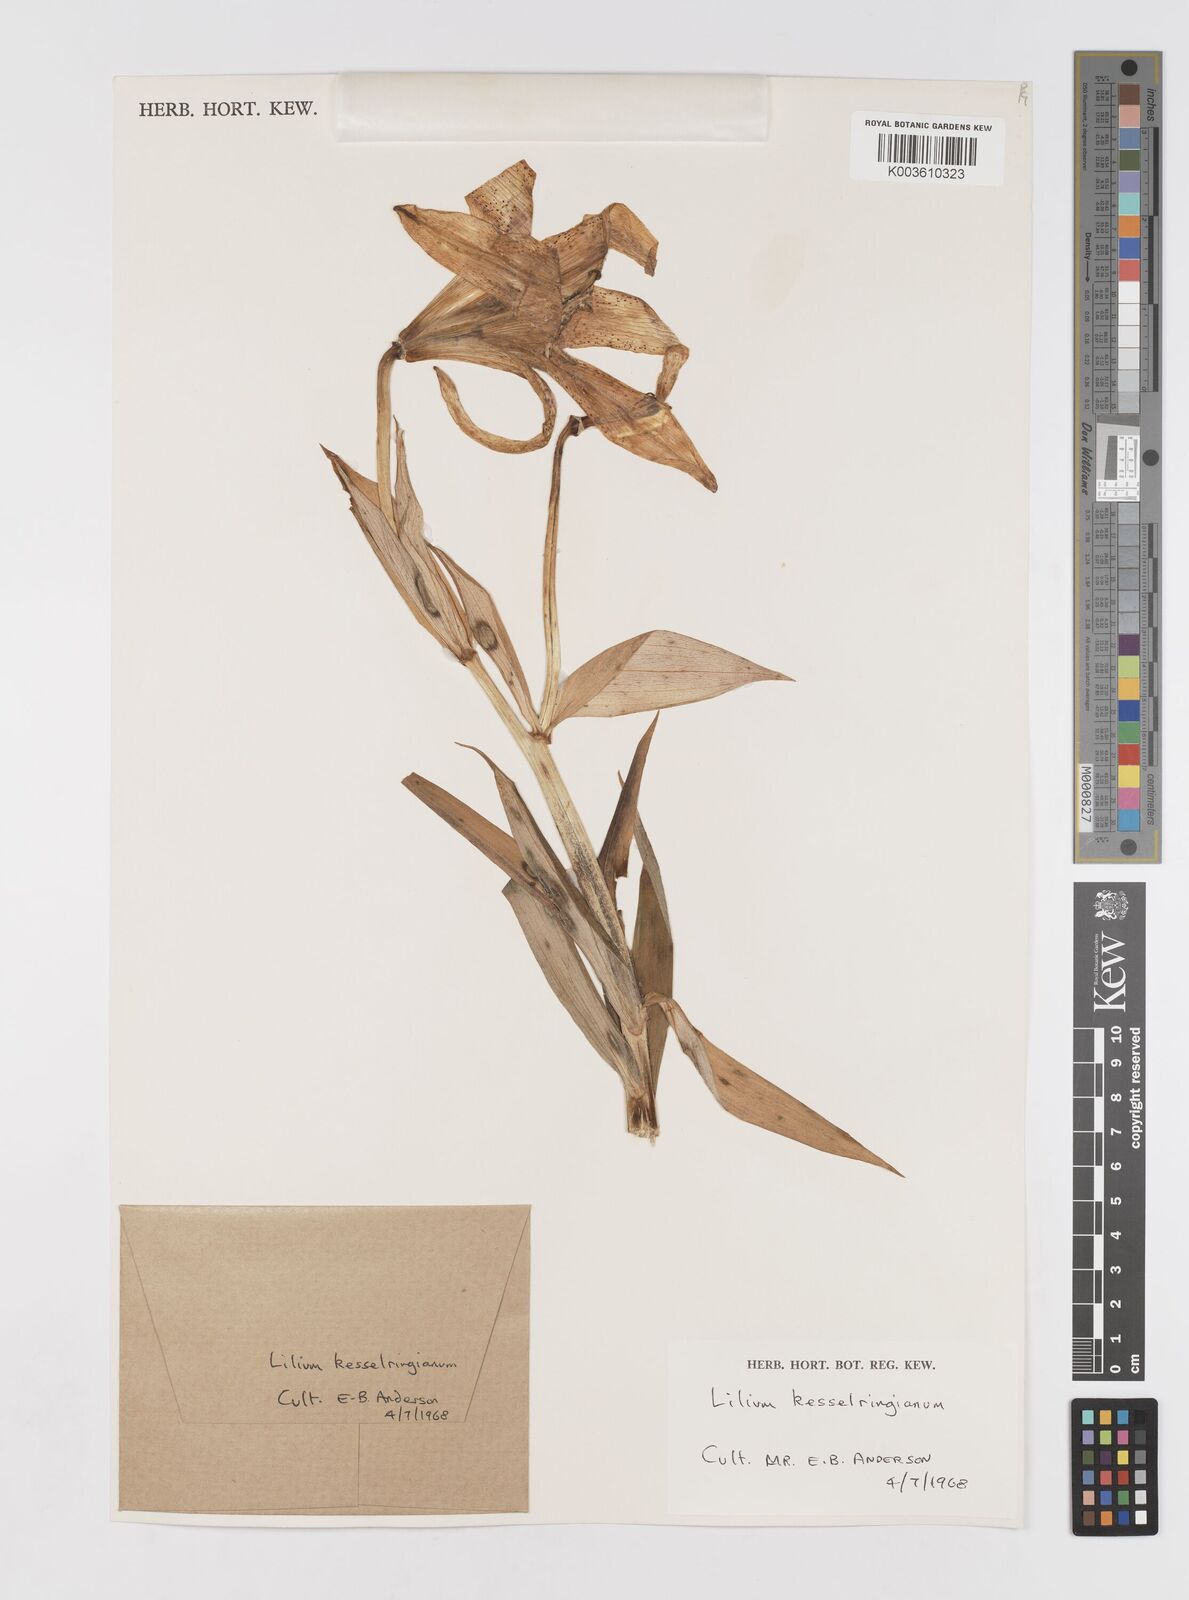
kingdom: Plantae
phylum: Tracheophyta
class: Liliopsida
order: Liliales
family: Liliaceae
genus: Lilium
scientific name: Lilium kesselringianum
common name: Kesselring lily
